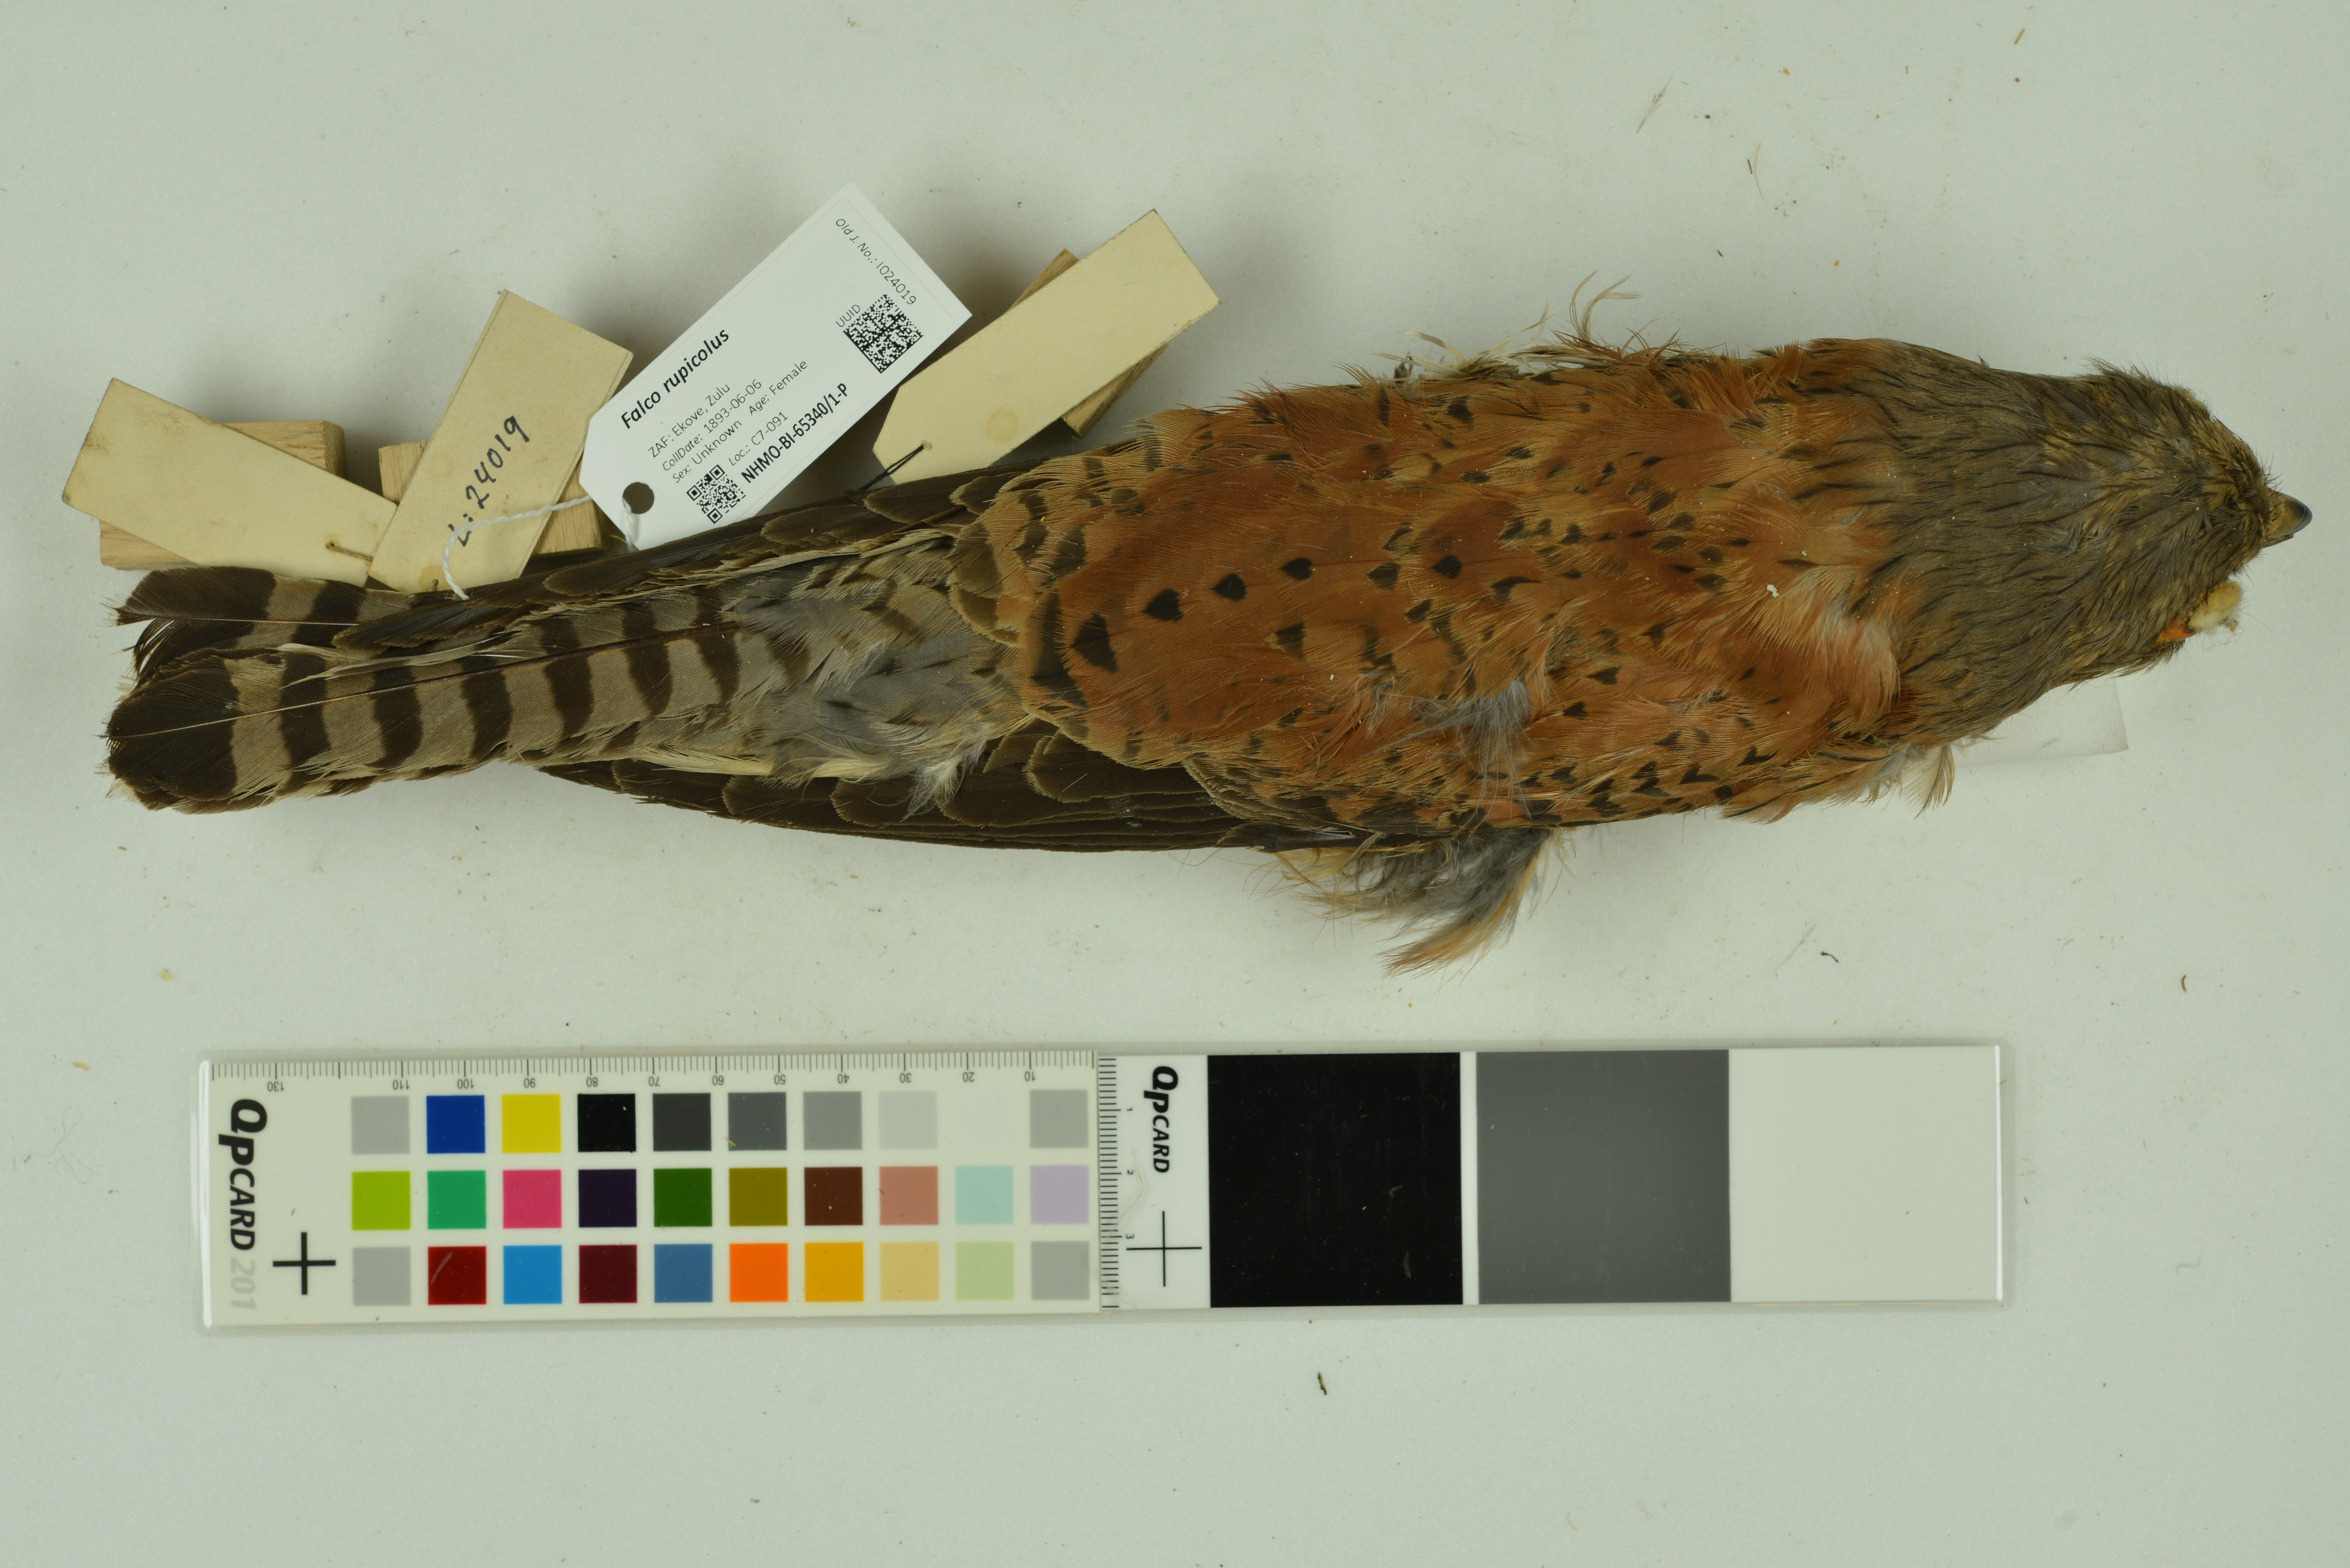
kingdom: Animalia
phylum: Chordata
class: Aves
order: Falconiformes
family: Falconidae
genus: Falco
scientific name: Falco rupicolus
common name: Rock kestrel
